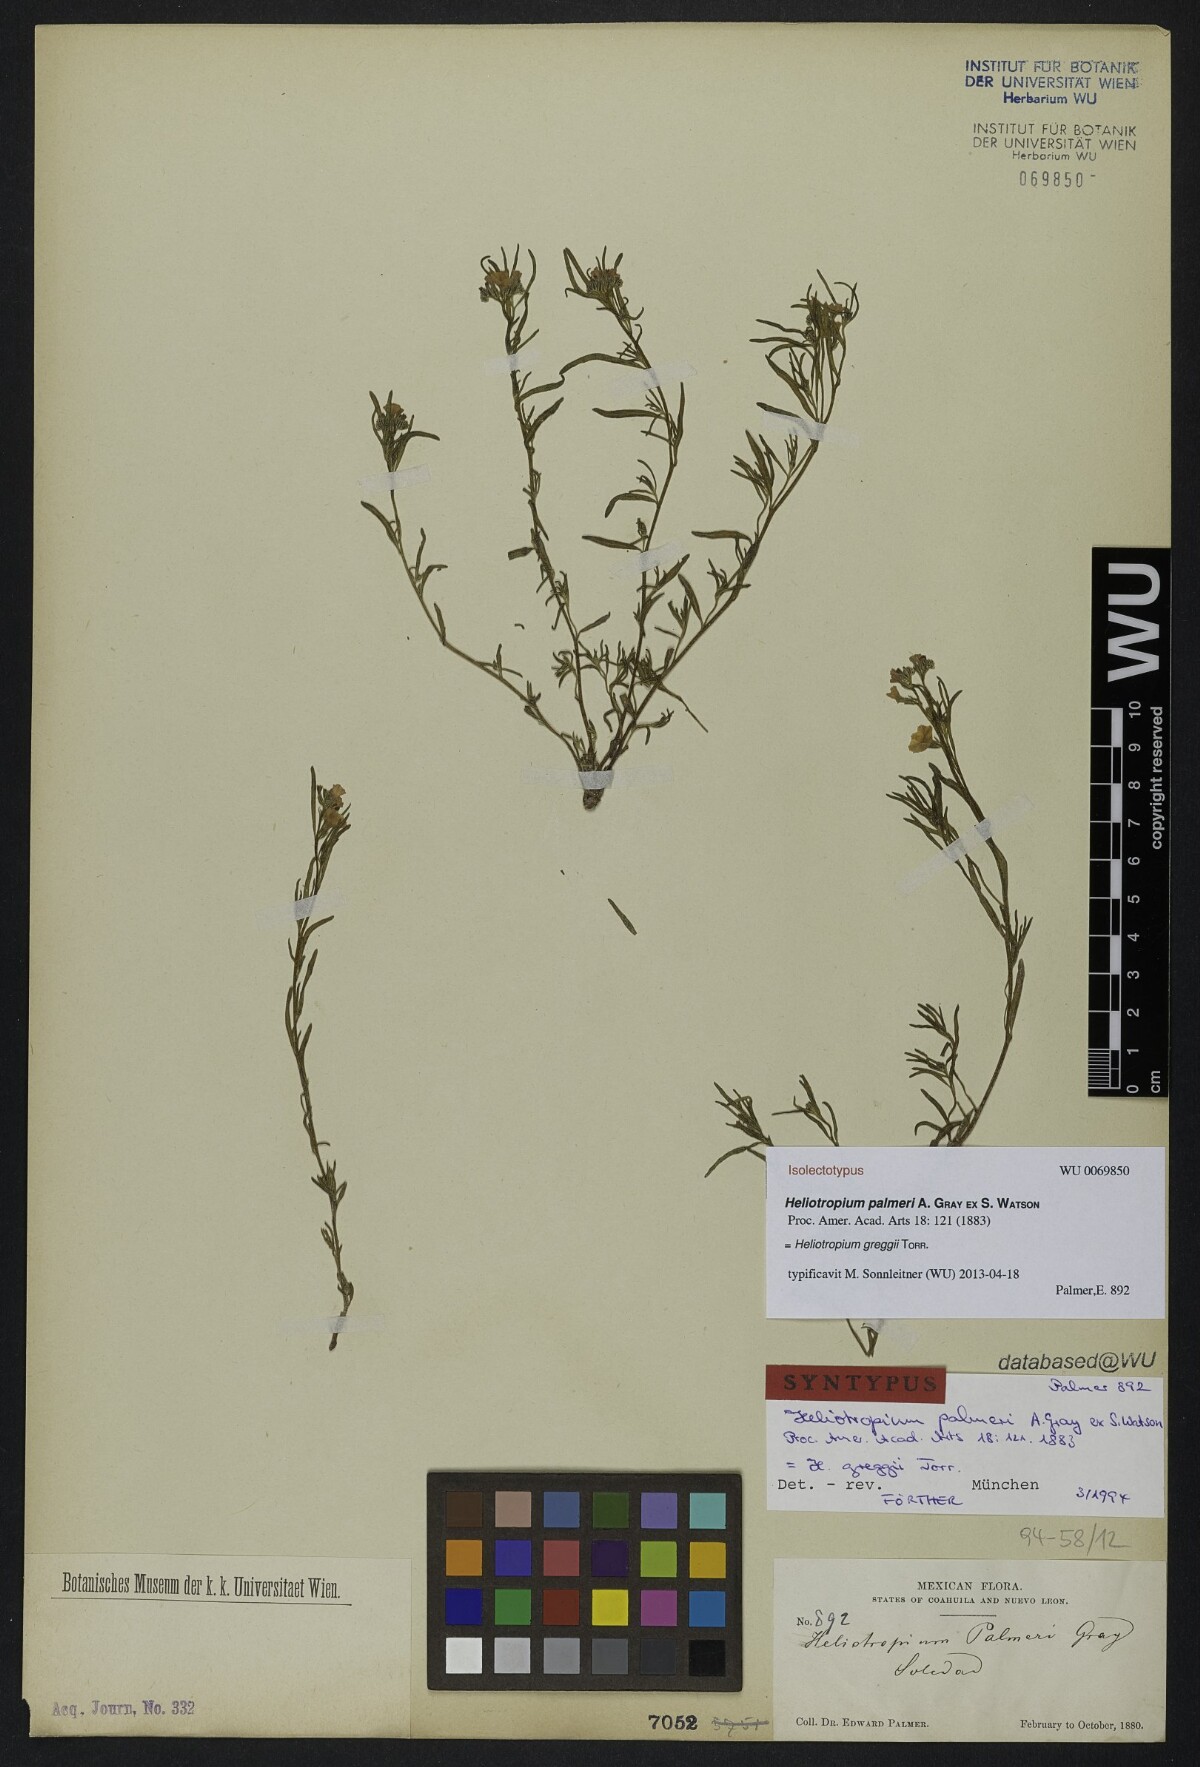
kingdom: Plantae
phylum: Tracheophyta
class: Magnoliopsida
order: Boraginales
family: Heliotropiaceae
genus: Euploca
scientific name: Euploca greggii
